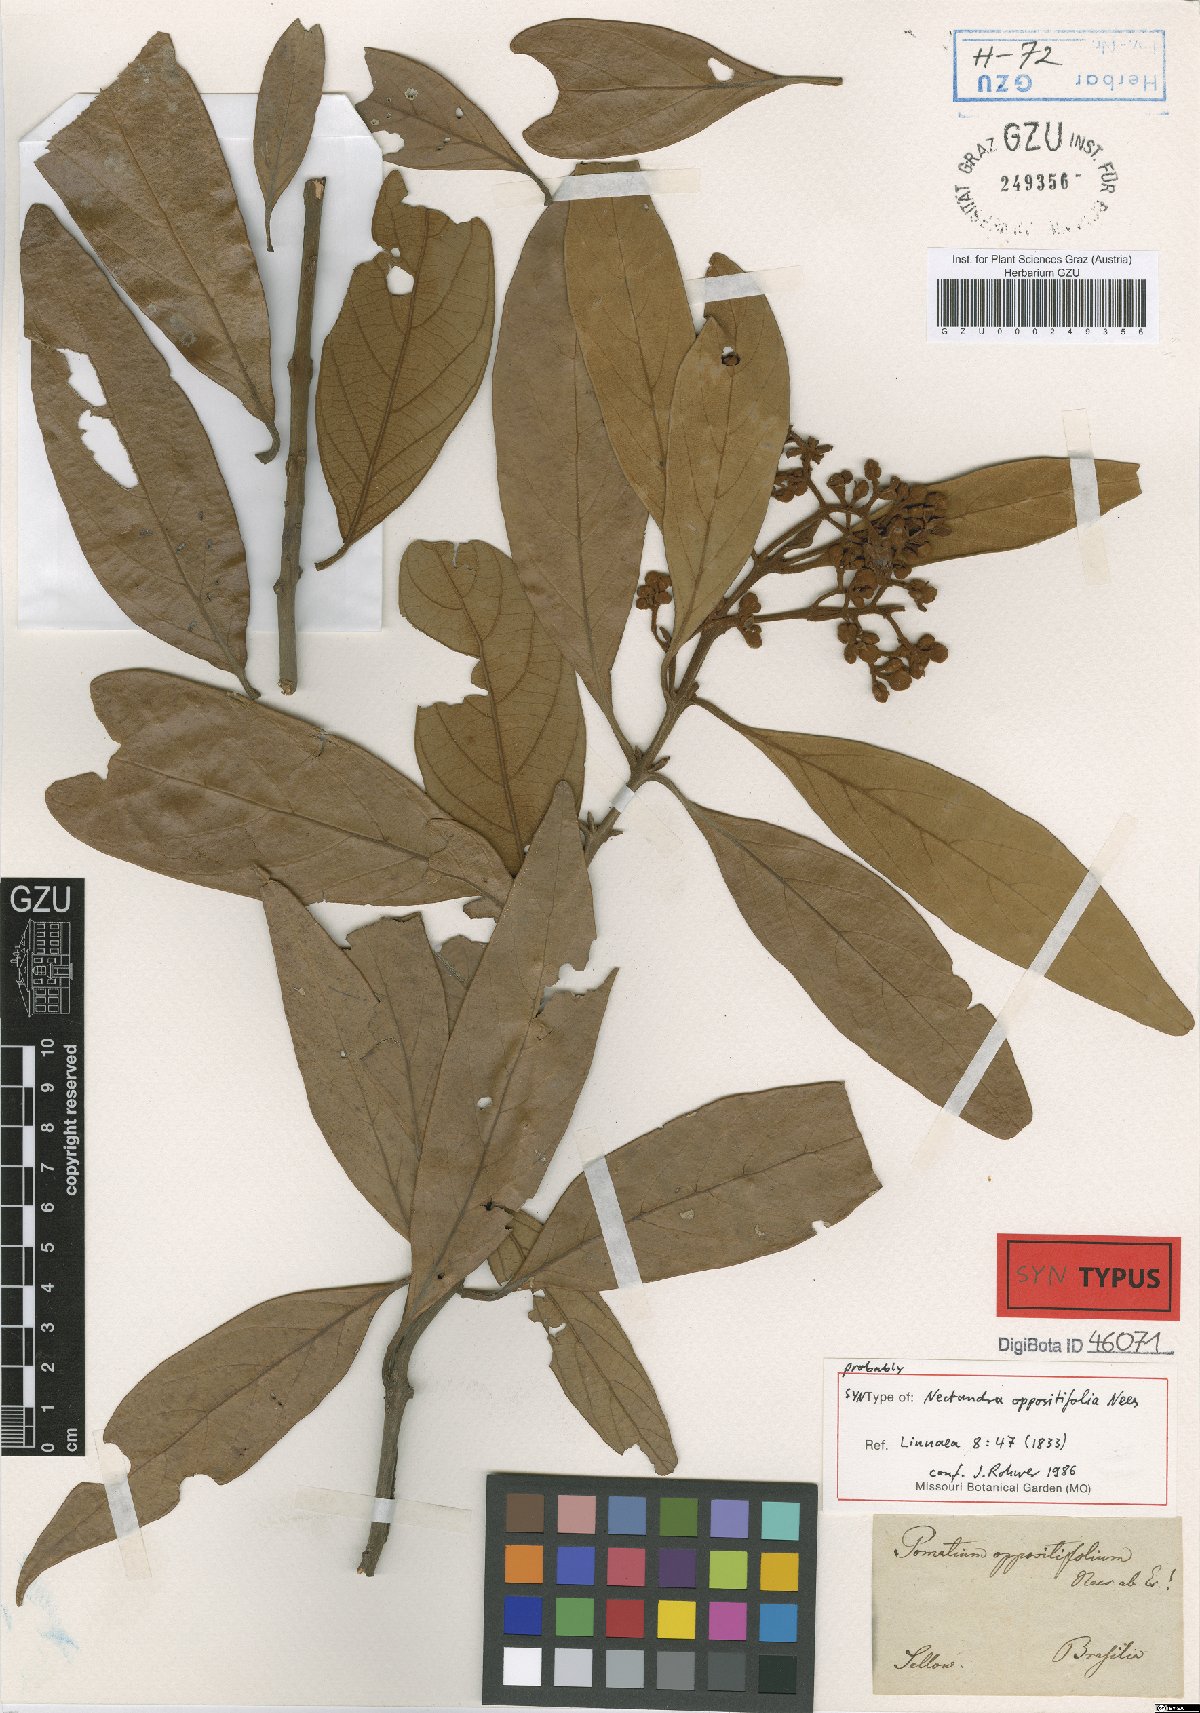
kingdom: Plantae
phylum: Tracheophyta
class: Magnoliopsida
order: Laurales
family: Lauraceae
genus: Nectandra
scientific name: Nectandra oppositifolia
